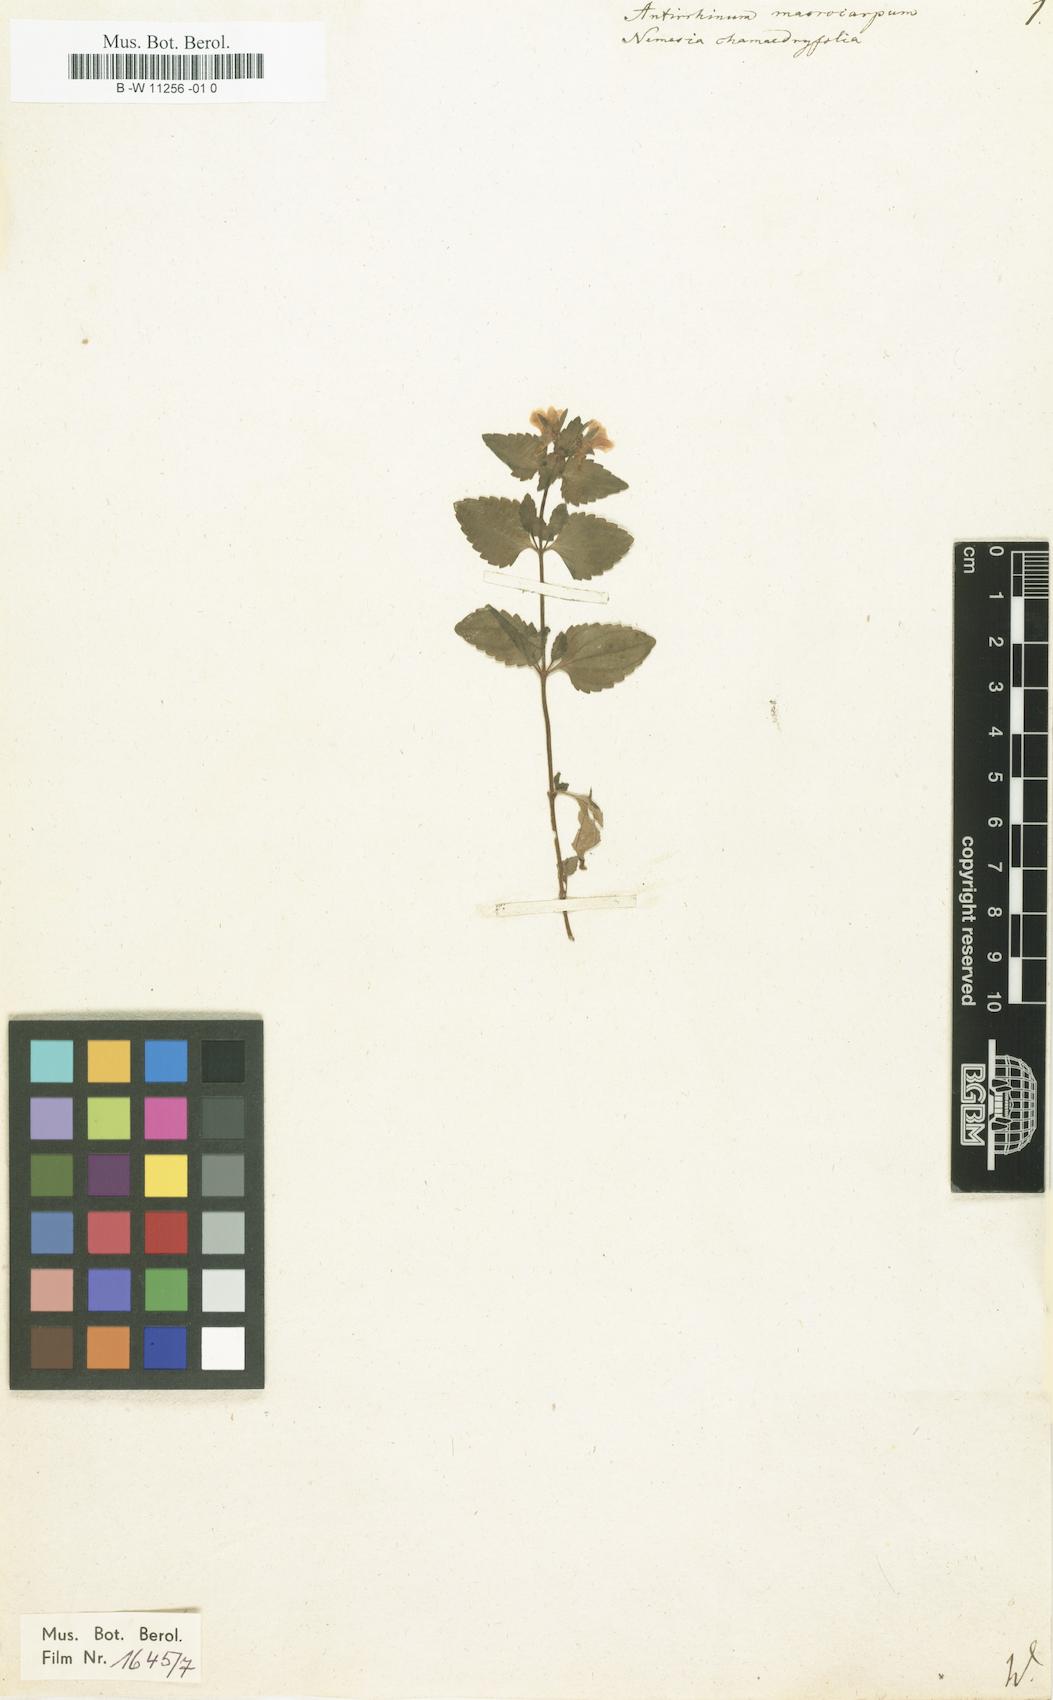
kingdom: Plantae
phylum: Tracheophyta
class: Magnoliopsida
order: Lamiales
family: Scrophulariaceae
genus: Nemesia
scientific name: Nemesia macrocarpa
